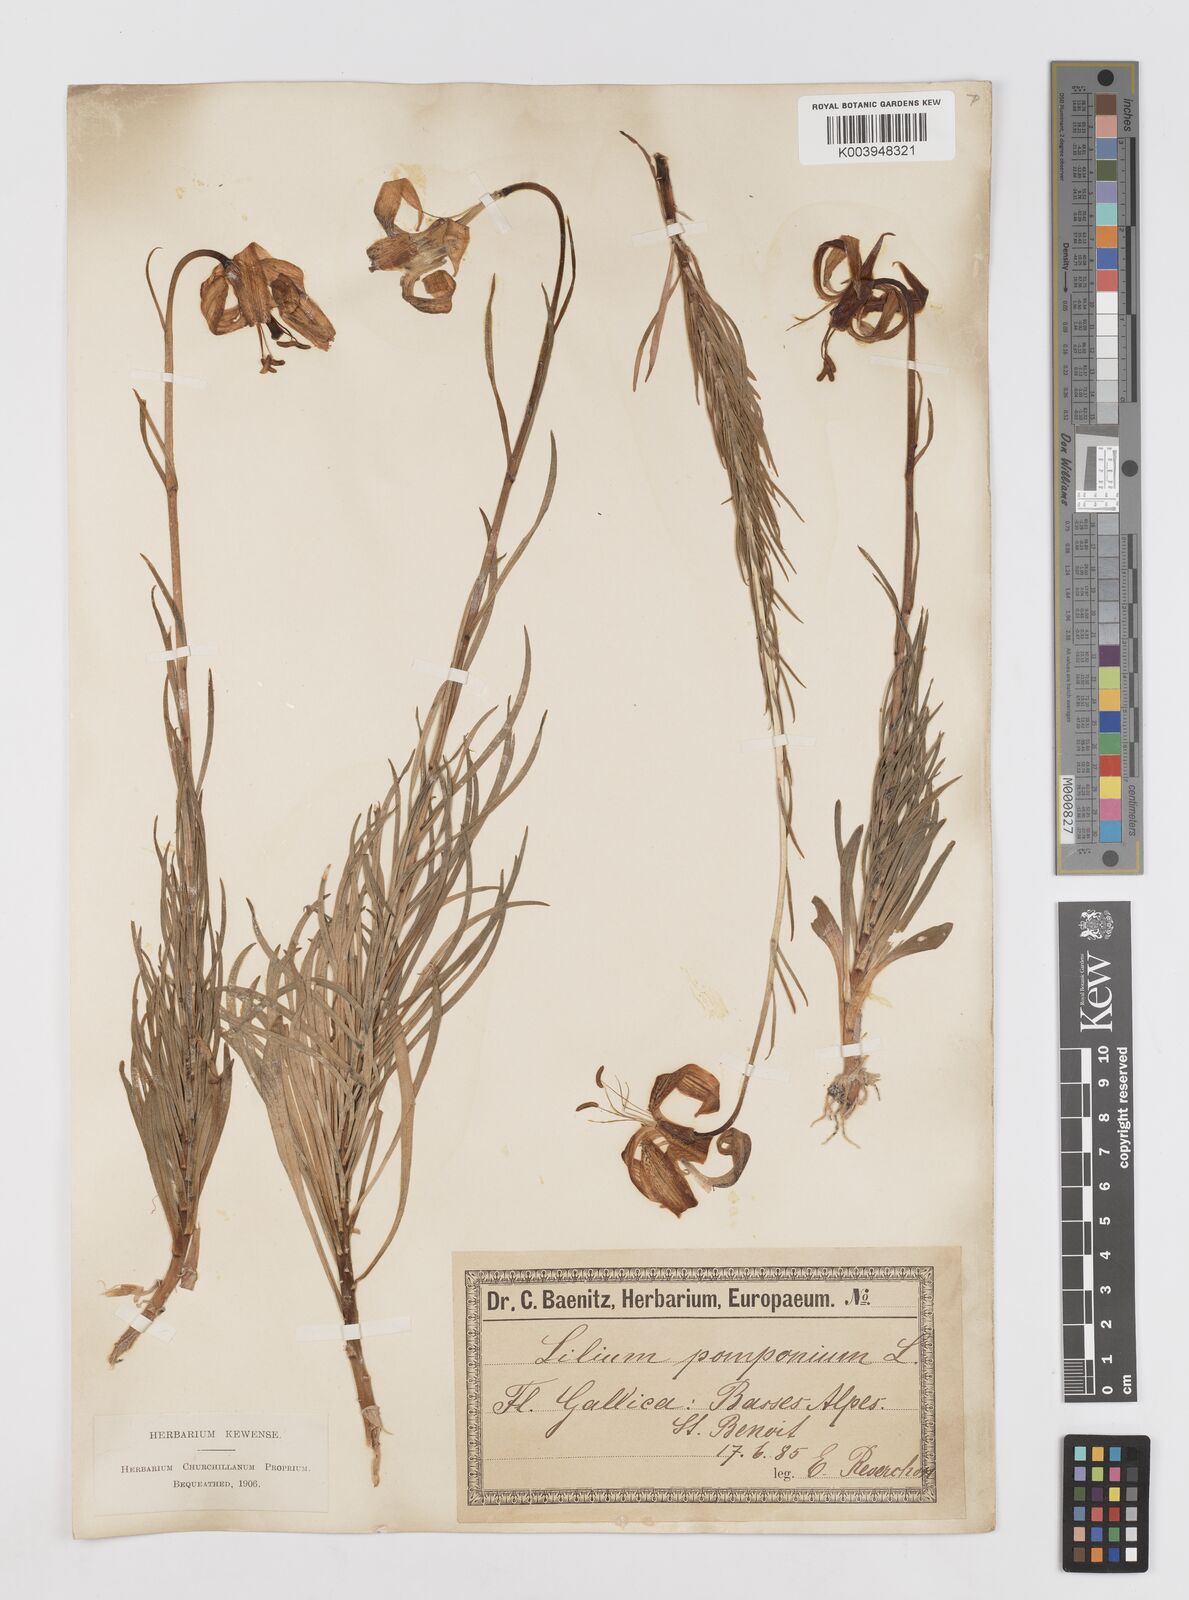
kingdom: Plantae
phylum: Tracheophyta
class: Liliopsida
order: Liliales
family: Liliaceae
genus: Lilium
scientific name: Lilium pomponium
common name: Minor turk's-cap lily
